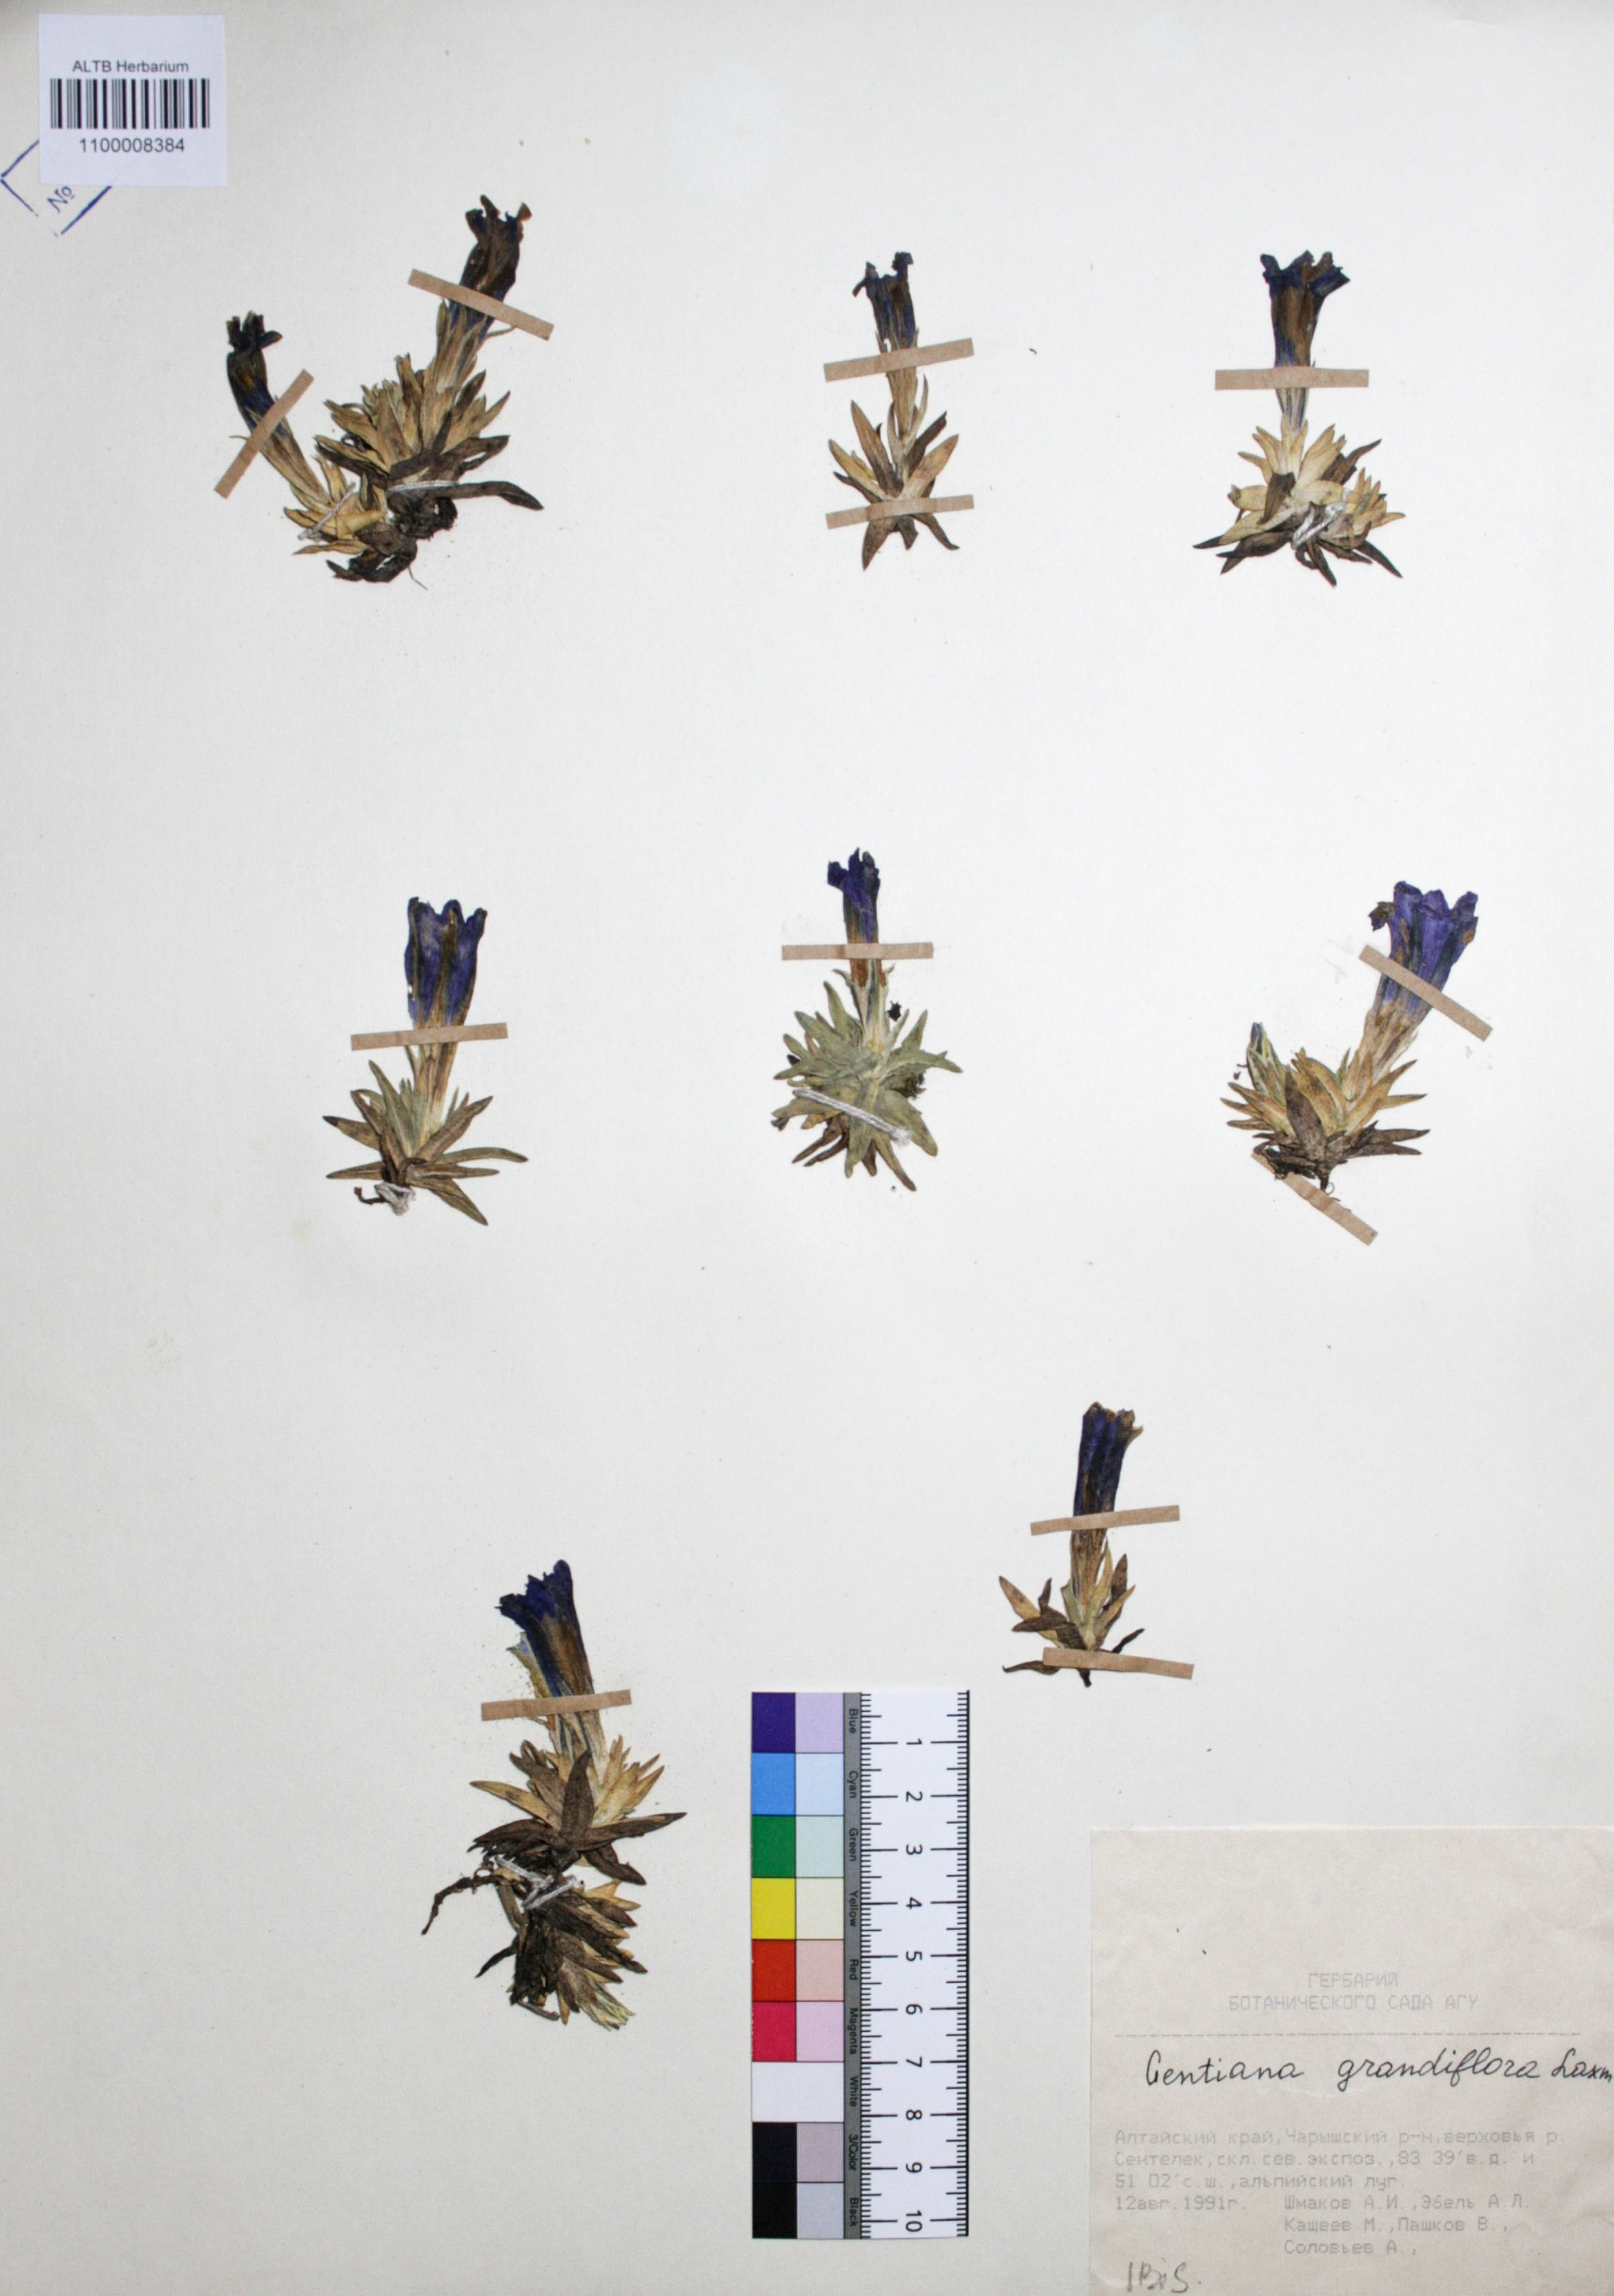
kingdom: Plantae
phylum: Tracheophyta
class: Magnoliopsida
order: Gentianales
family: Gentianaceae
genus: Gentiana
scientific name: Gentiana grandiflora
